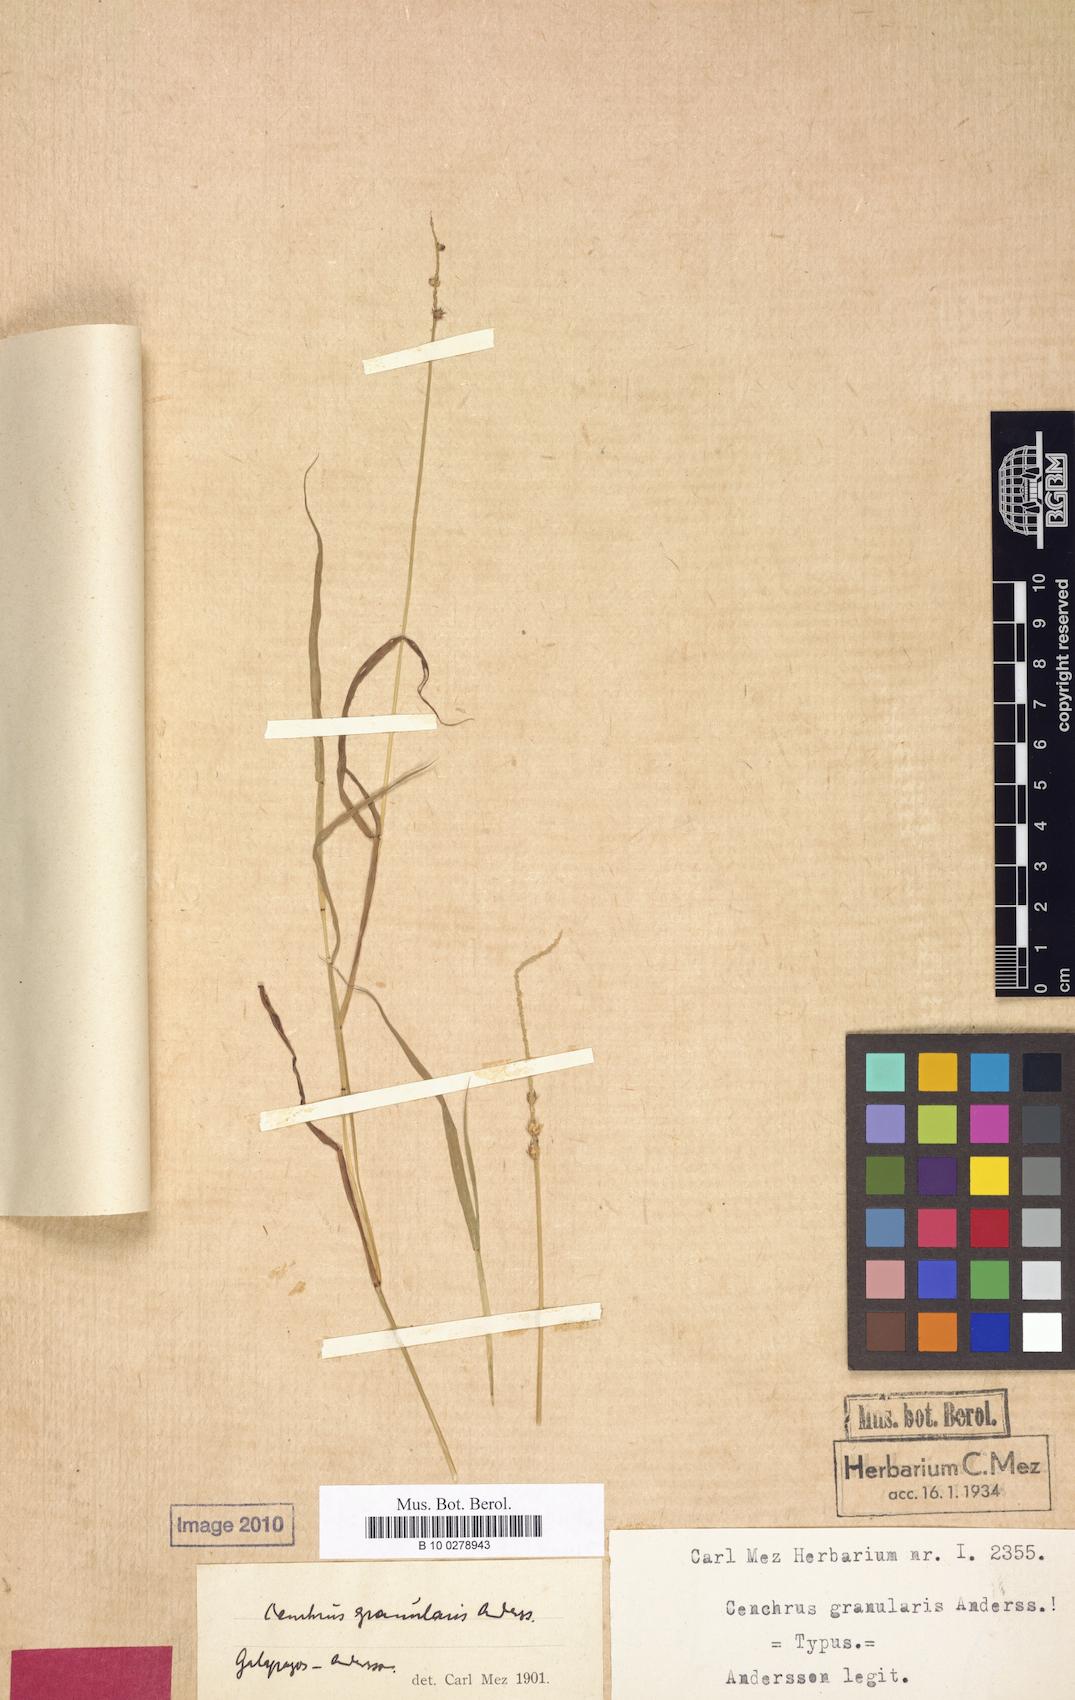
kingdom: Plantae
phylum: Tracheophyta
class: Liliopsida
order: Poales
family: Poaceae
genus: Cenchrus
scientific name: Cenchrus platyacanthus
